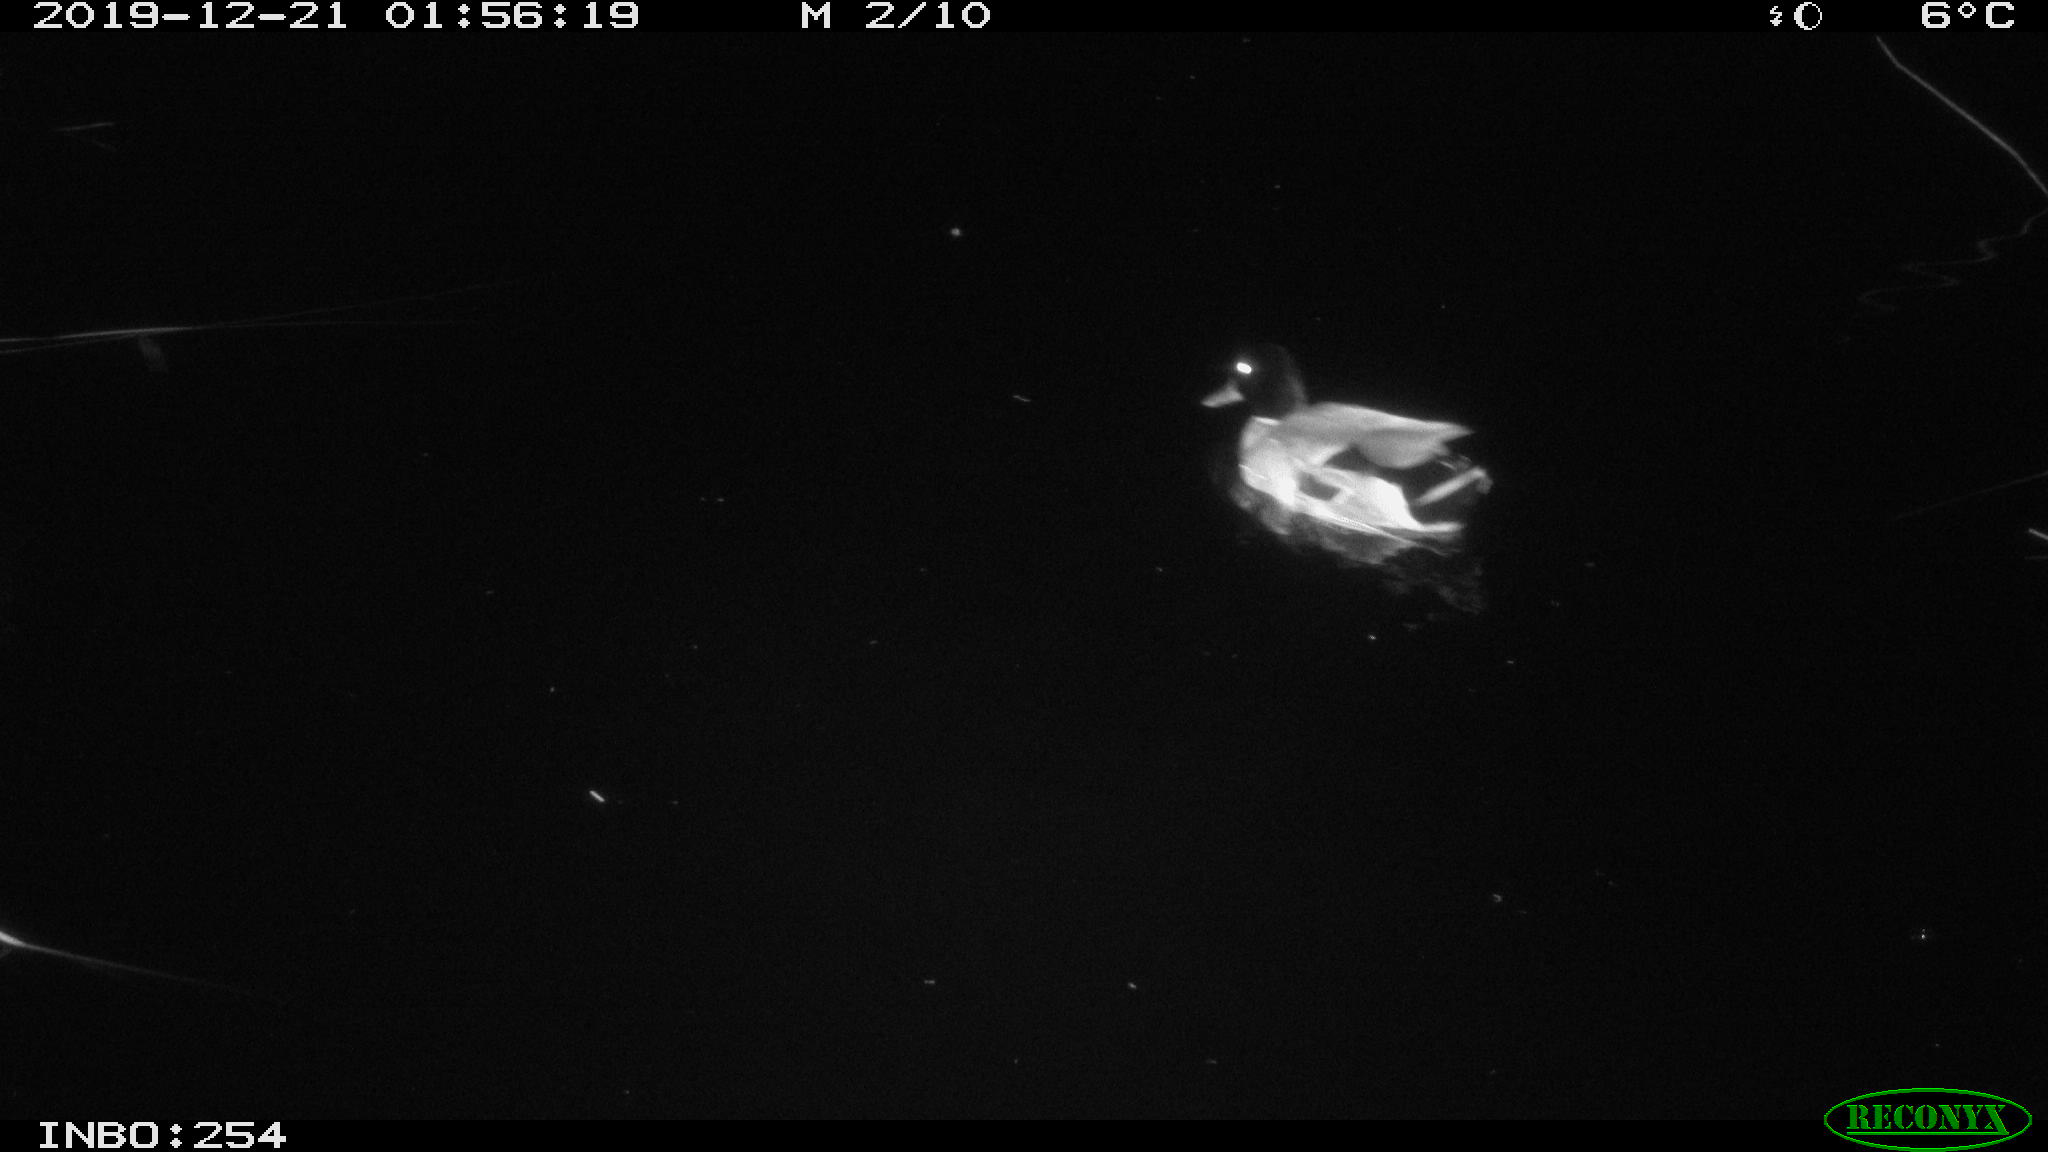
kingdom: Animalia
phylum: Chordata
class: Aves
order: Anseriformes
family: Anatidae
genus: Anas
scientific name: Anas platyrhynchos
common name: Mallard
